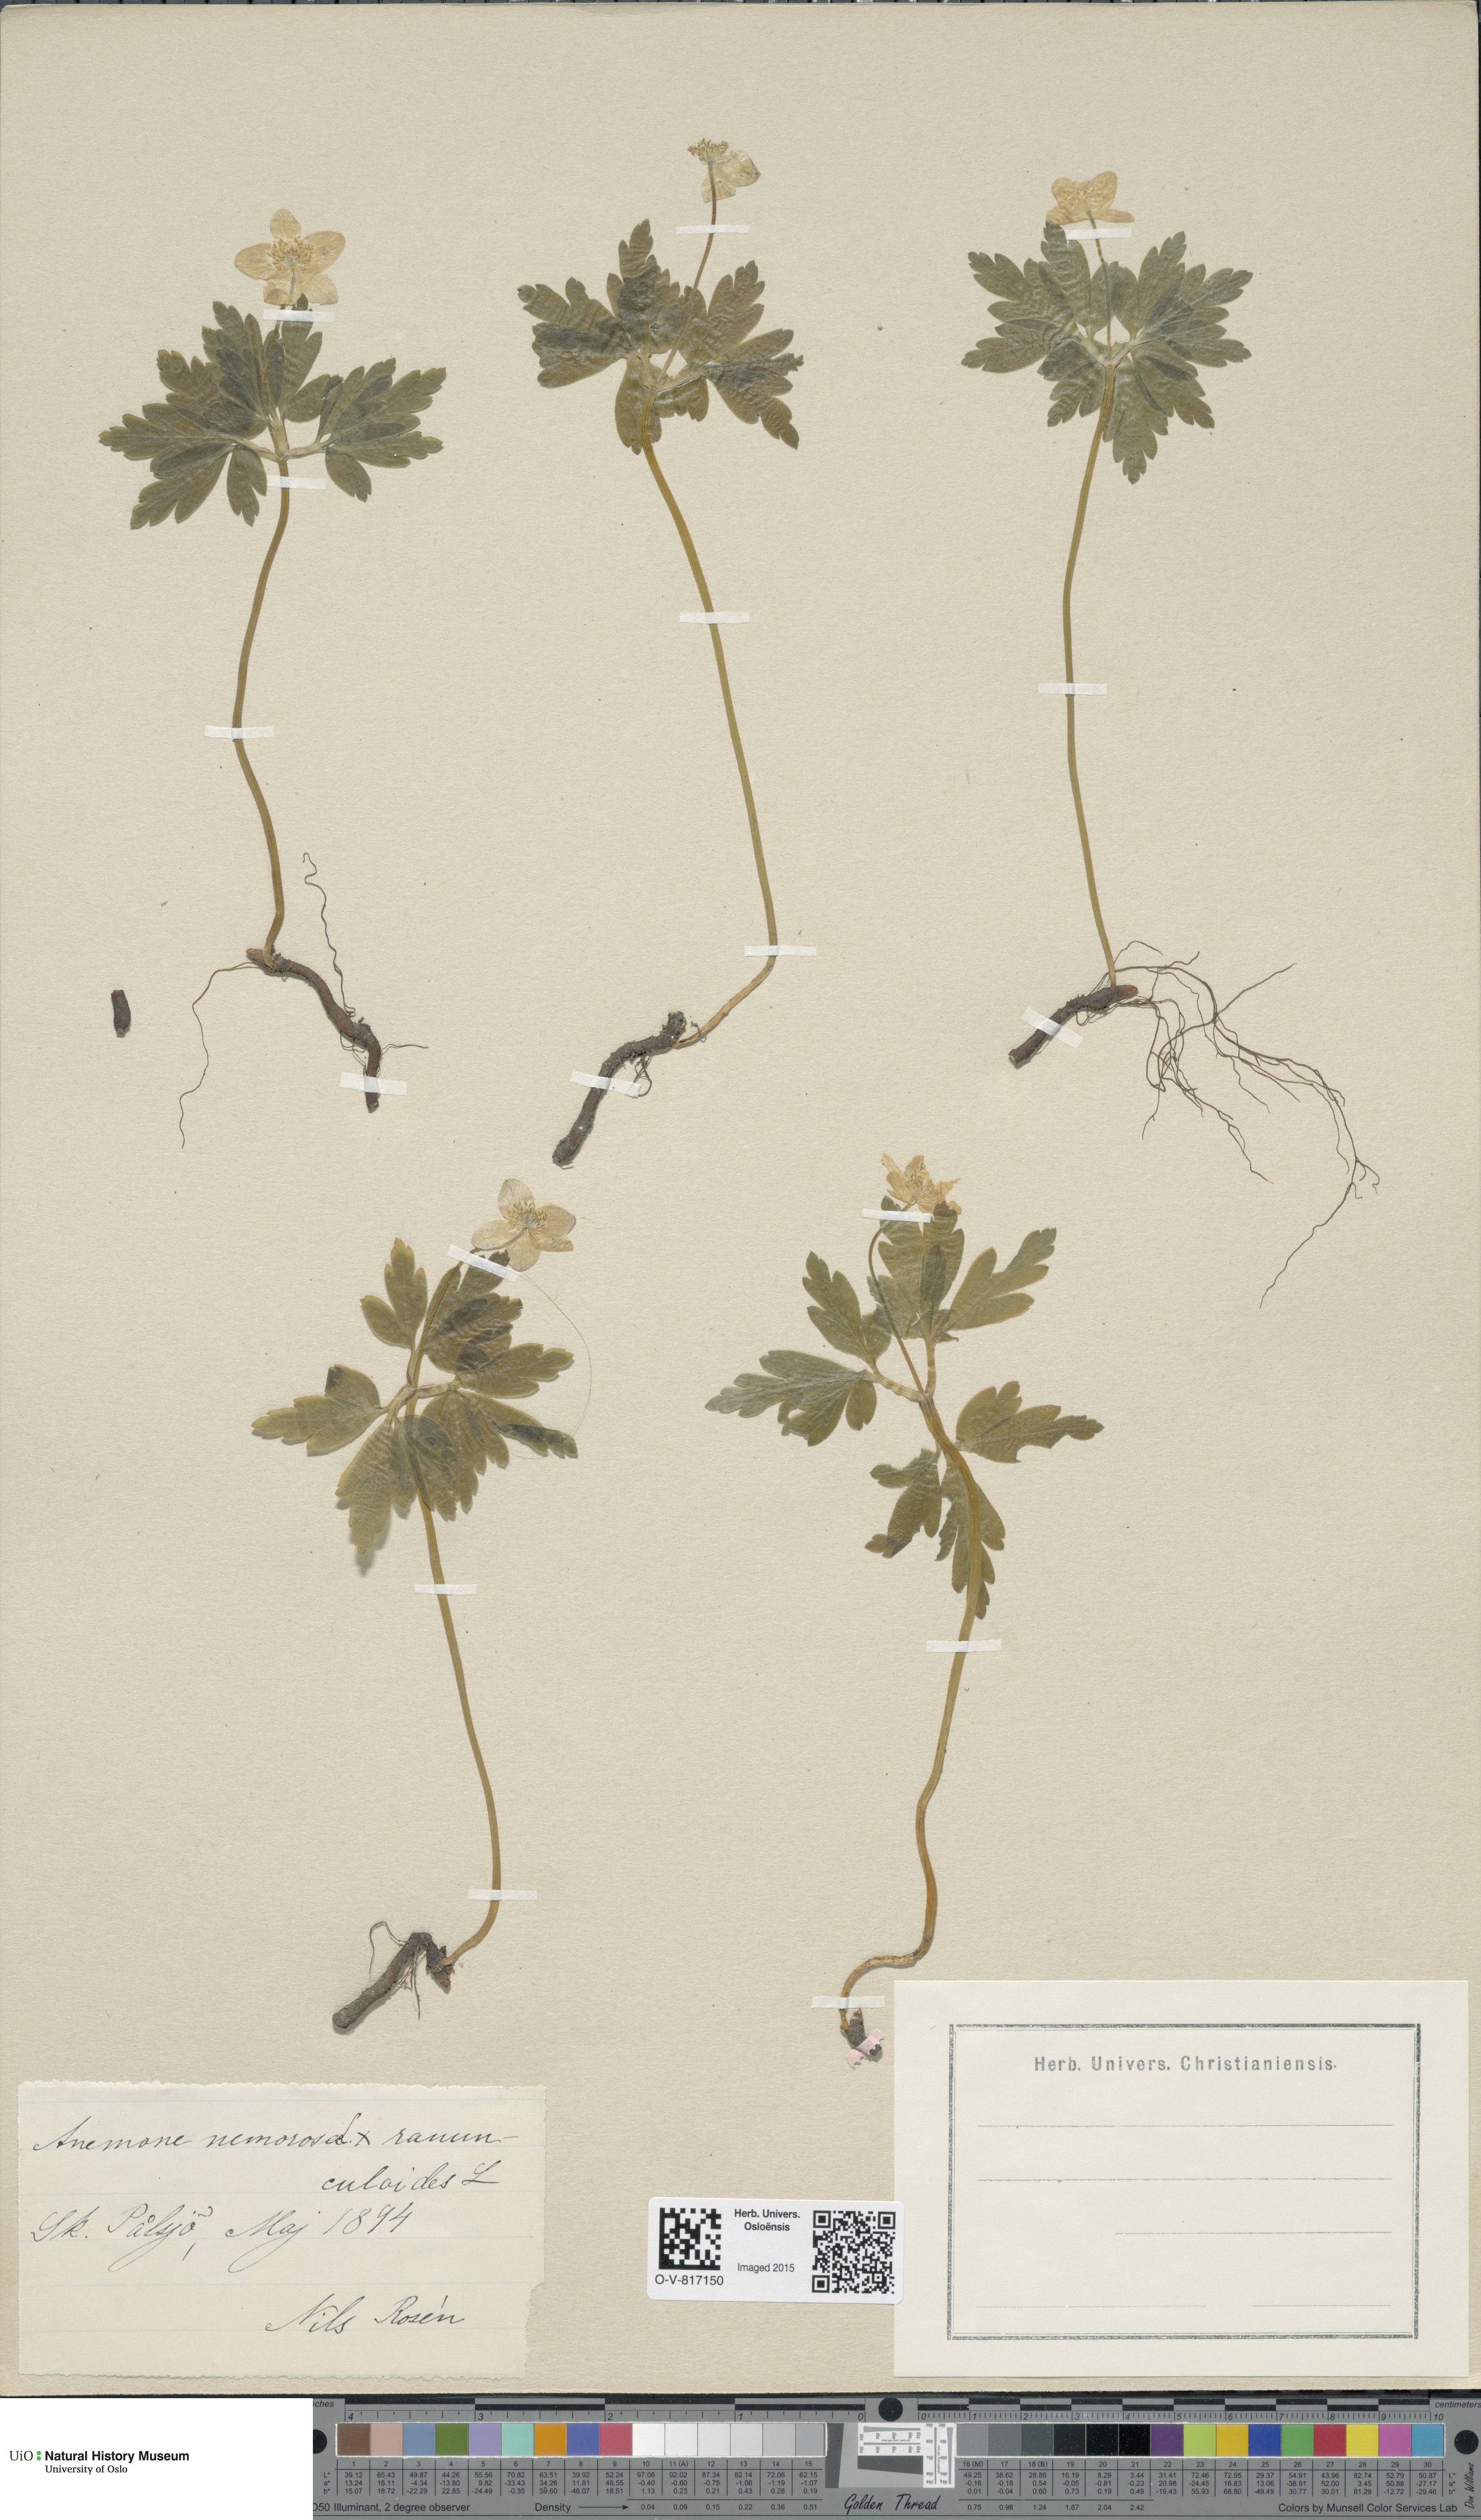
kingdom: Plantae
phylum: Tracheophyta
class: Magnoliopsida
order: Ranunculales
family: Ranunculaceae
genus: Anemone
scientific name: Anemone
